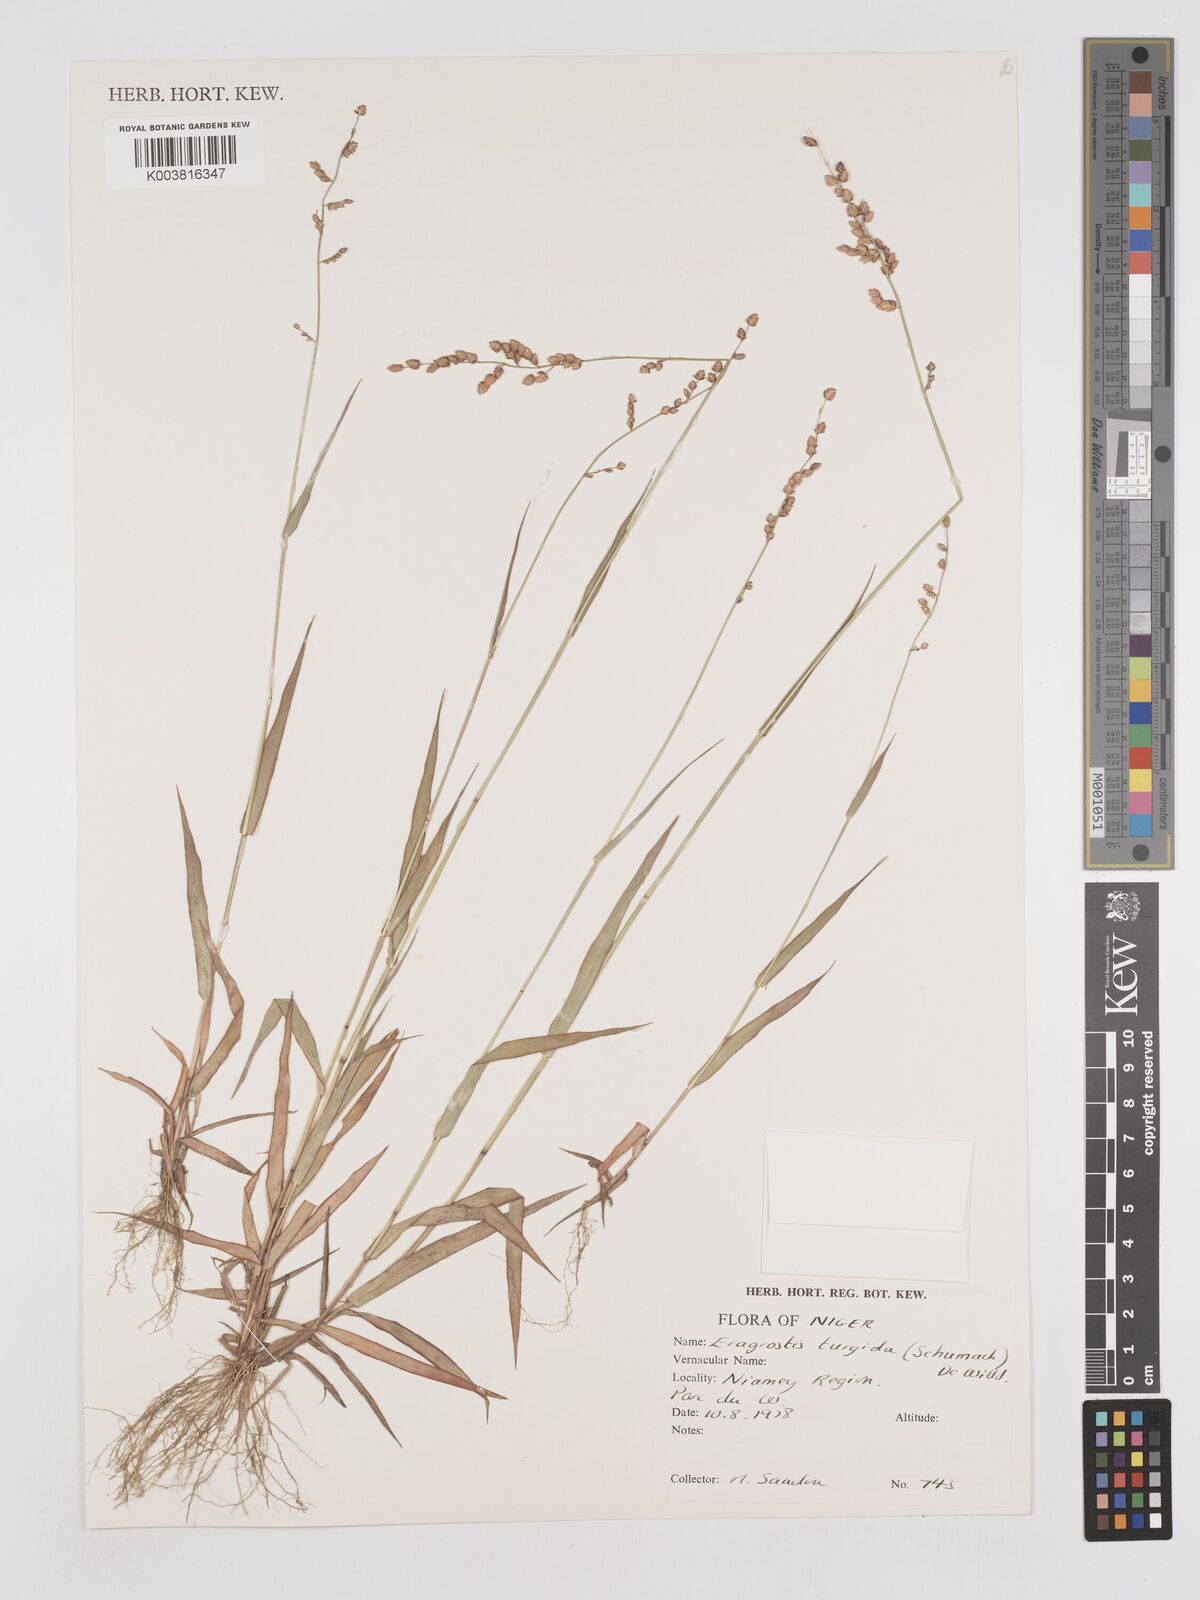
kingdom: Plantae
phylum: Tracheophyta
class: Liliopsida
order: Poales
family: Poaceae
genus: Eragrostis
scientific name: Eragrostis turgida
